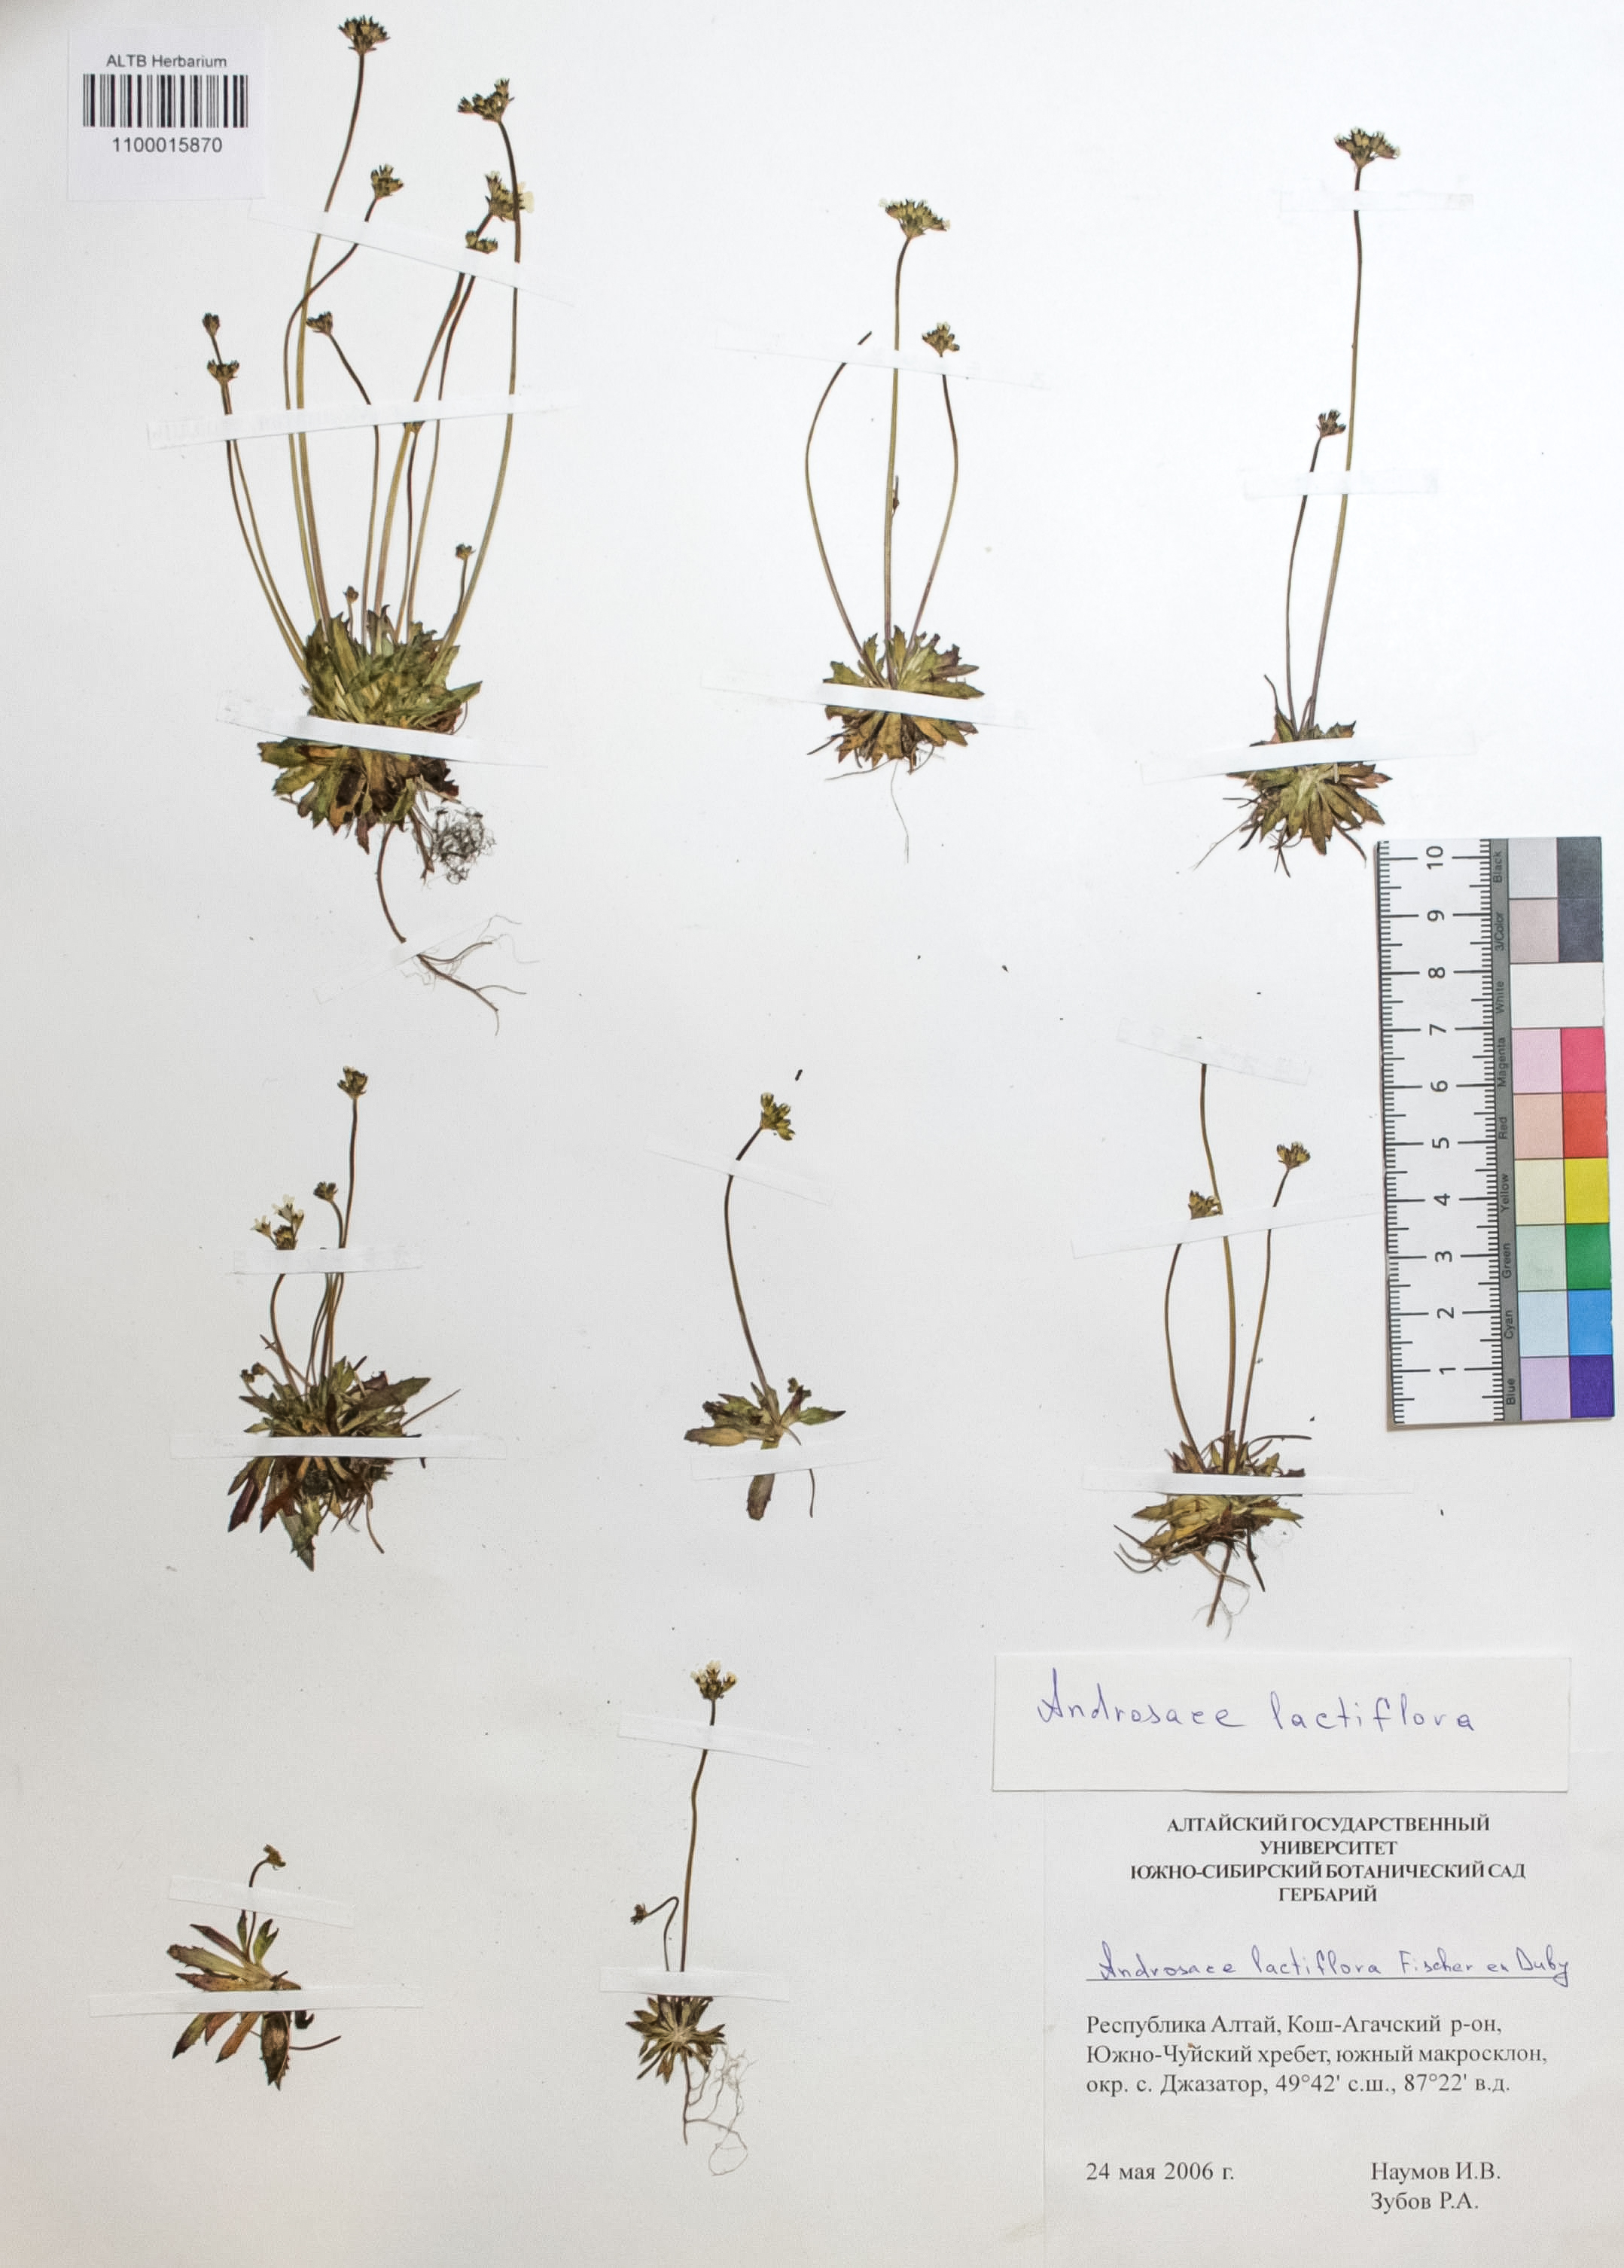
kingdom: Plantae
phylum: Tracheophyta
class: Magnoliopsida
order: Ericales
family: Primulaceae
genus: Androsace
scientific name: Androsace lactiflora
